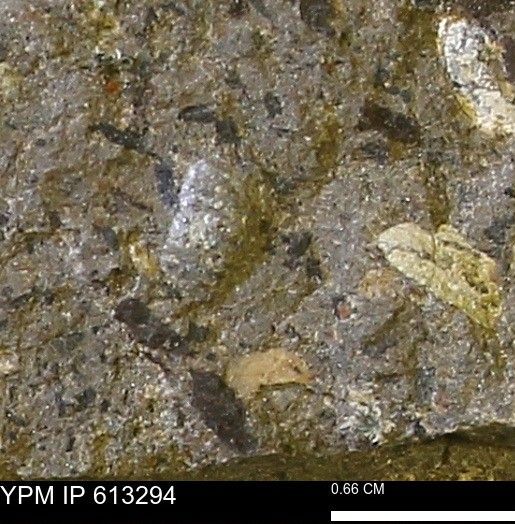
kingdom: Animalia
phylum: Mollusca
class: Cephalopoda
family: Scaphitidae
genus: Scaphites
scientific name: Scaphites
